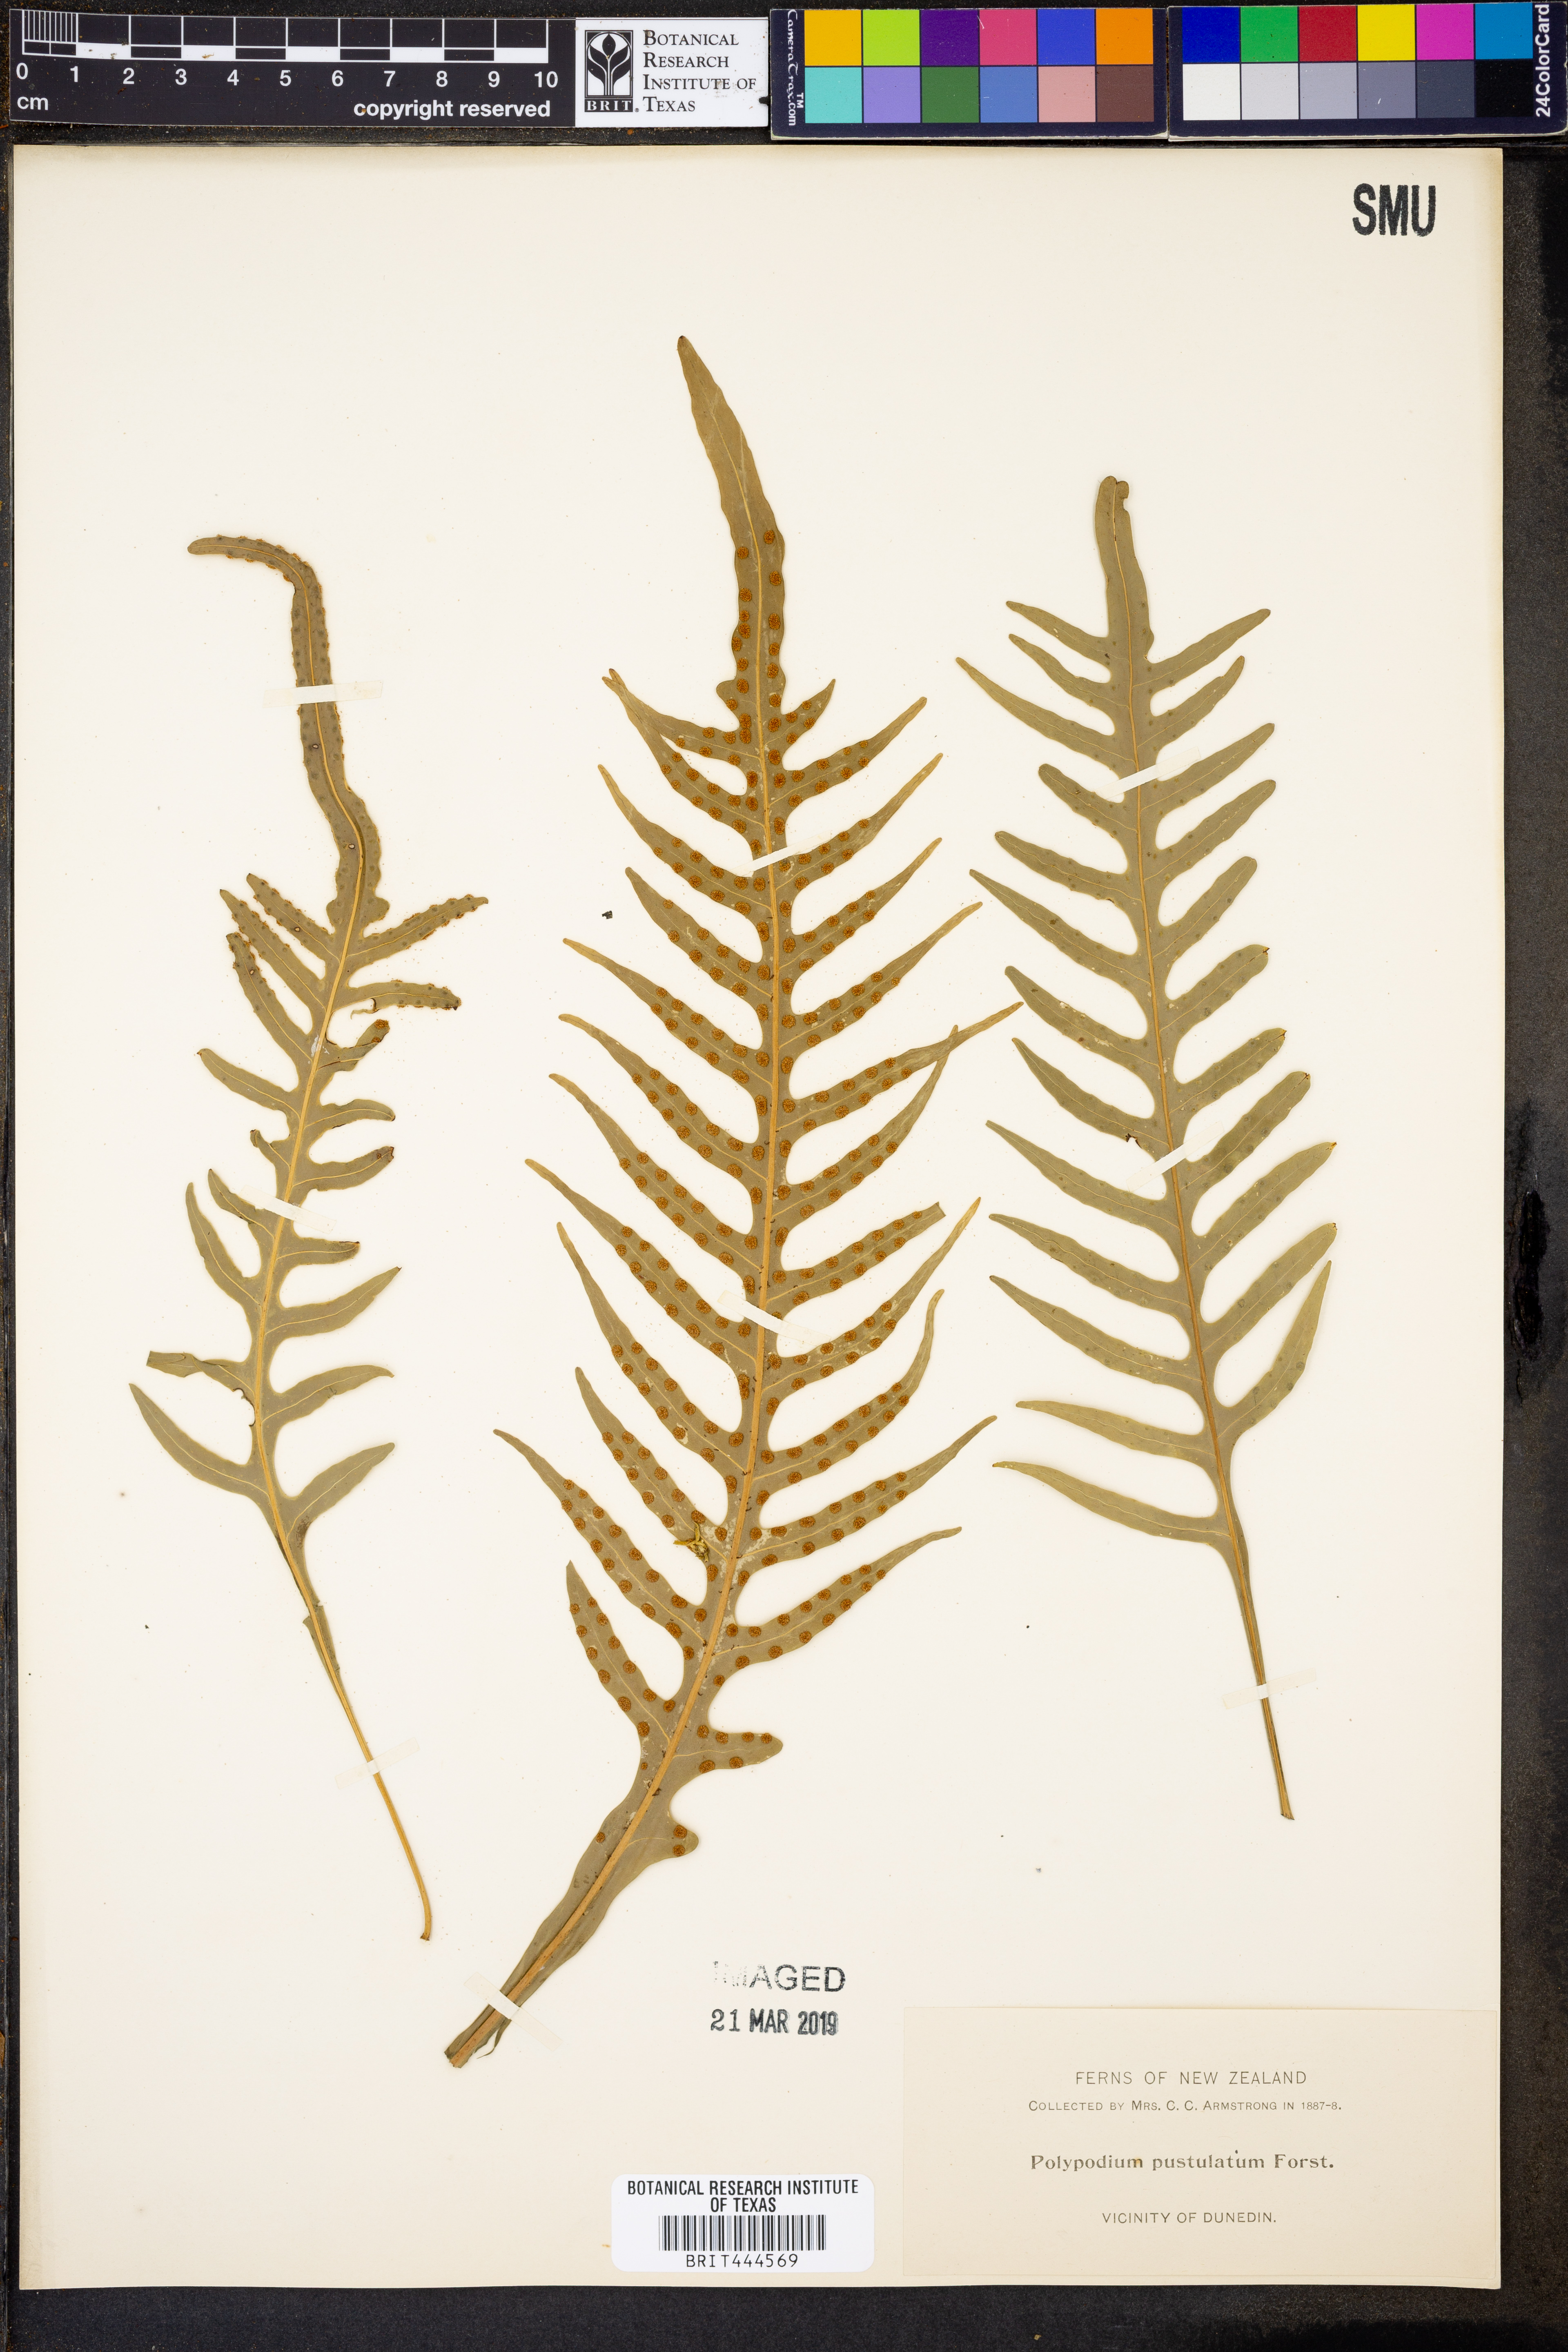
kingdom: Plantae
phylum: Tracheophyta
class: Polypodiopsida
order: Polypodiales
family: Polypodiaceae
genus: Lecanopteris
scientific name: Lecanopteris pustulata
